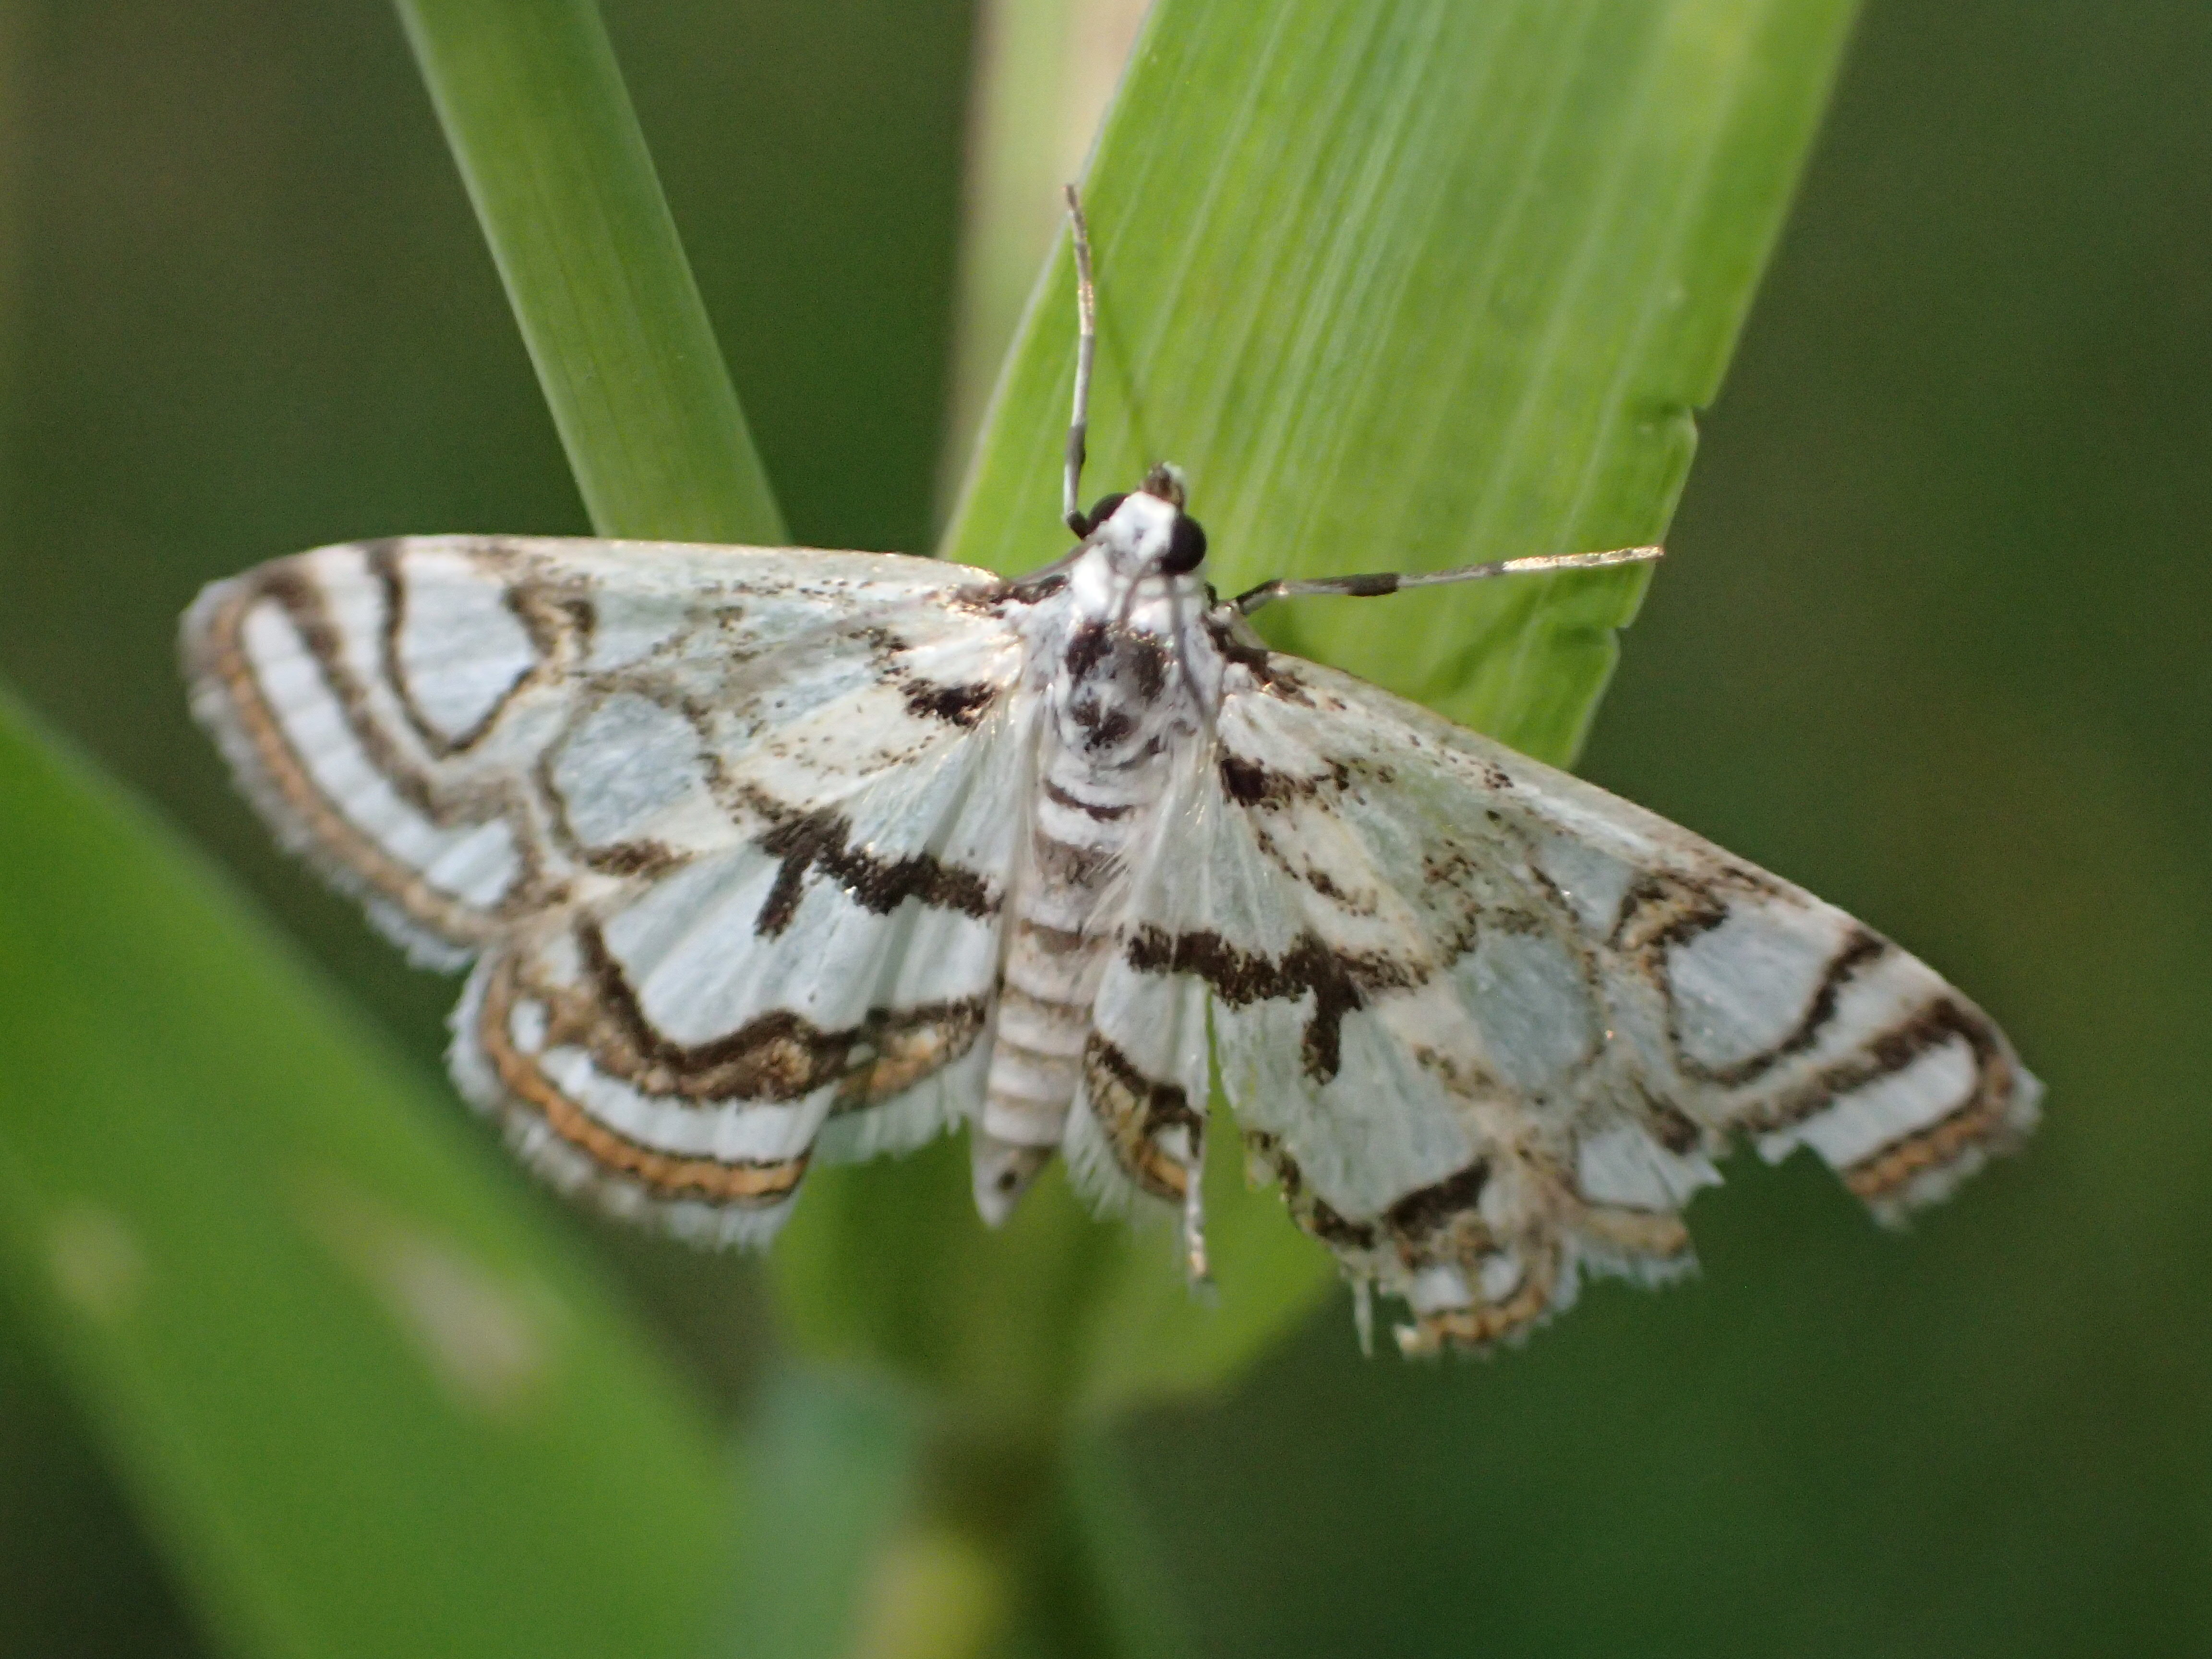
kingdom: Animalia
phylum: Arthropoda
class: Insecta
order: Lepidoptera
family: Crambidae
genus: Nymphula
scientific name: Nymphula nitidulata
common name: Beautiful china mark
